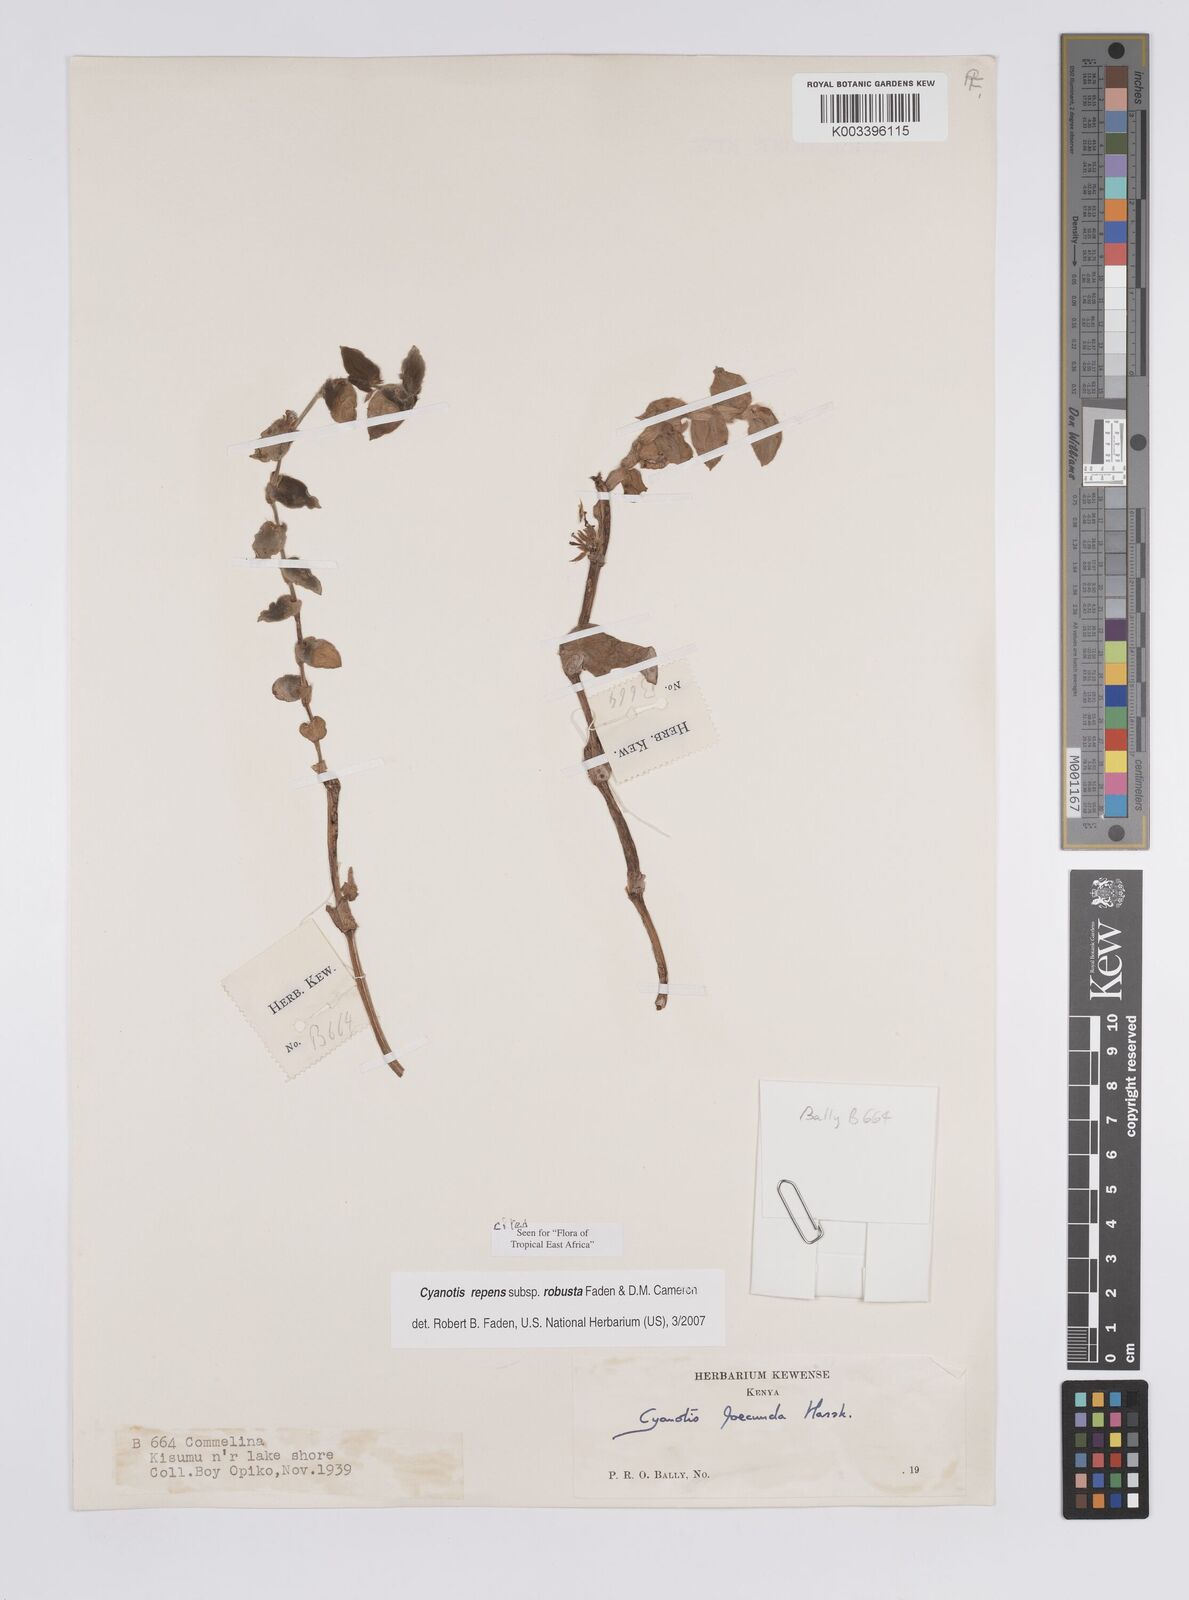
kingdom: Plantae
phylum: Tracheophyta
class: Liliopsida
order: Commelinales
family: Commelinaceae
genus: Cyanotis
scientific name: Cyanotis repens
